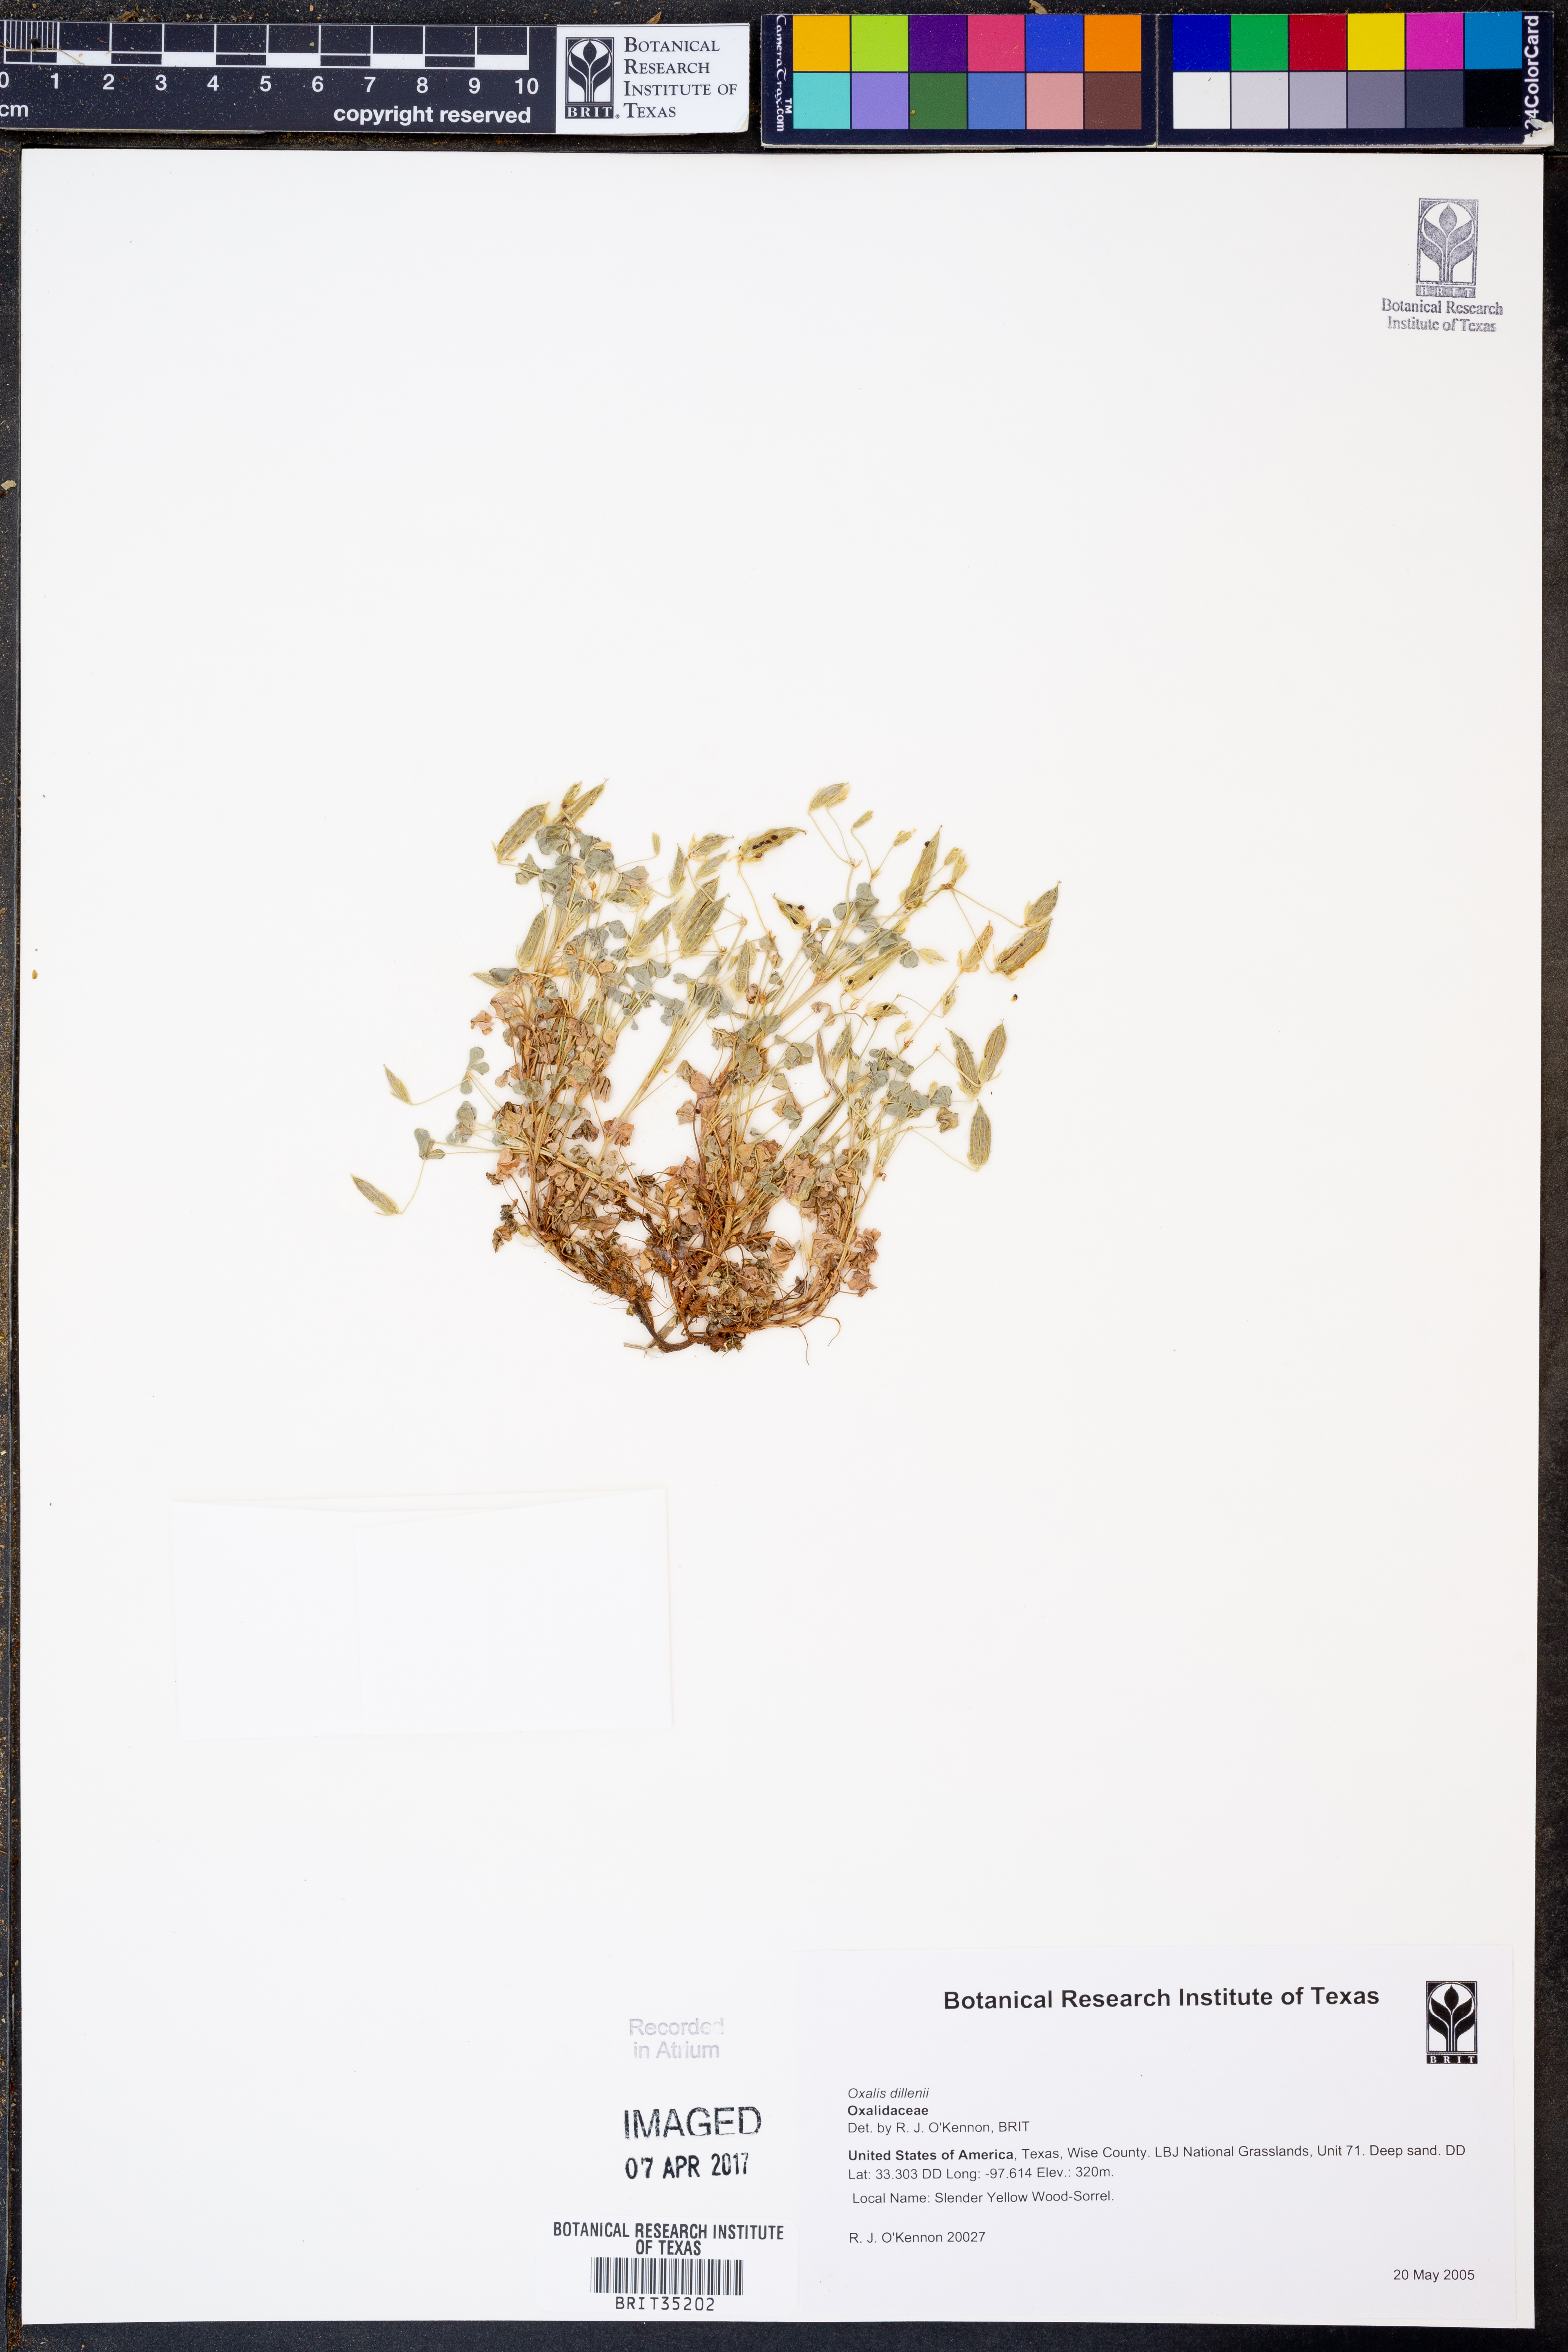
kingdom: Plantae
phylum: Tracheophyta
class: Magnoliopsida
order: Oxalidales
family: Oxalidaceae
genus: Oxalis
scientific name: Oxalis dillenii
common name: Sussex yellow-sorrel
